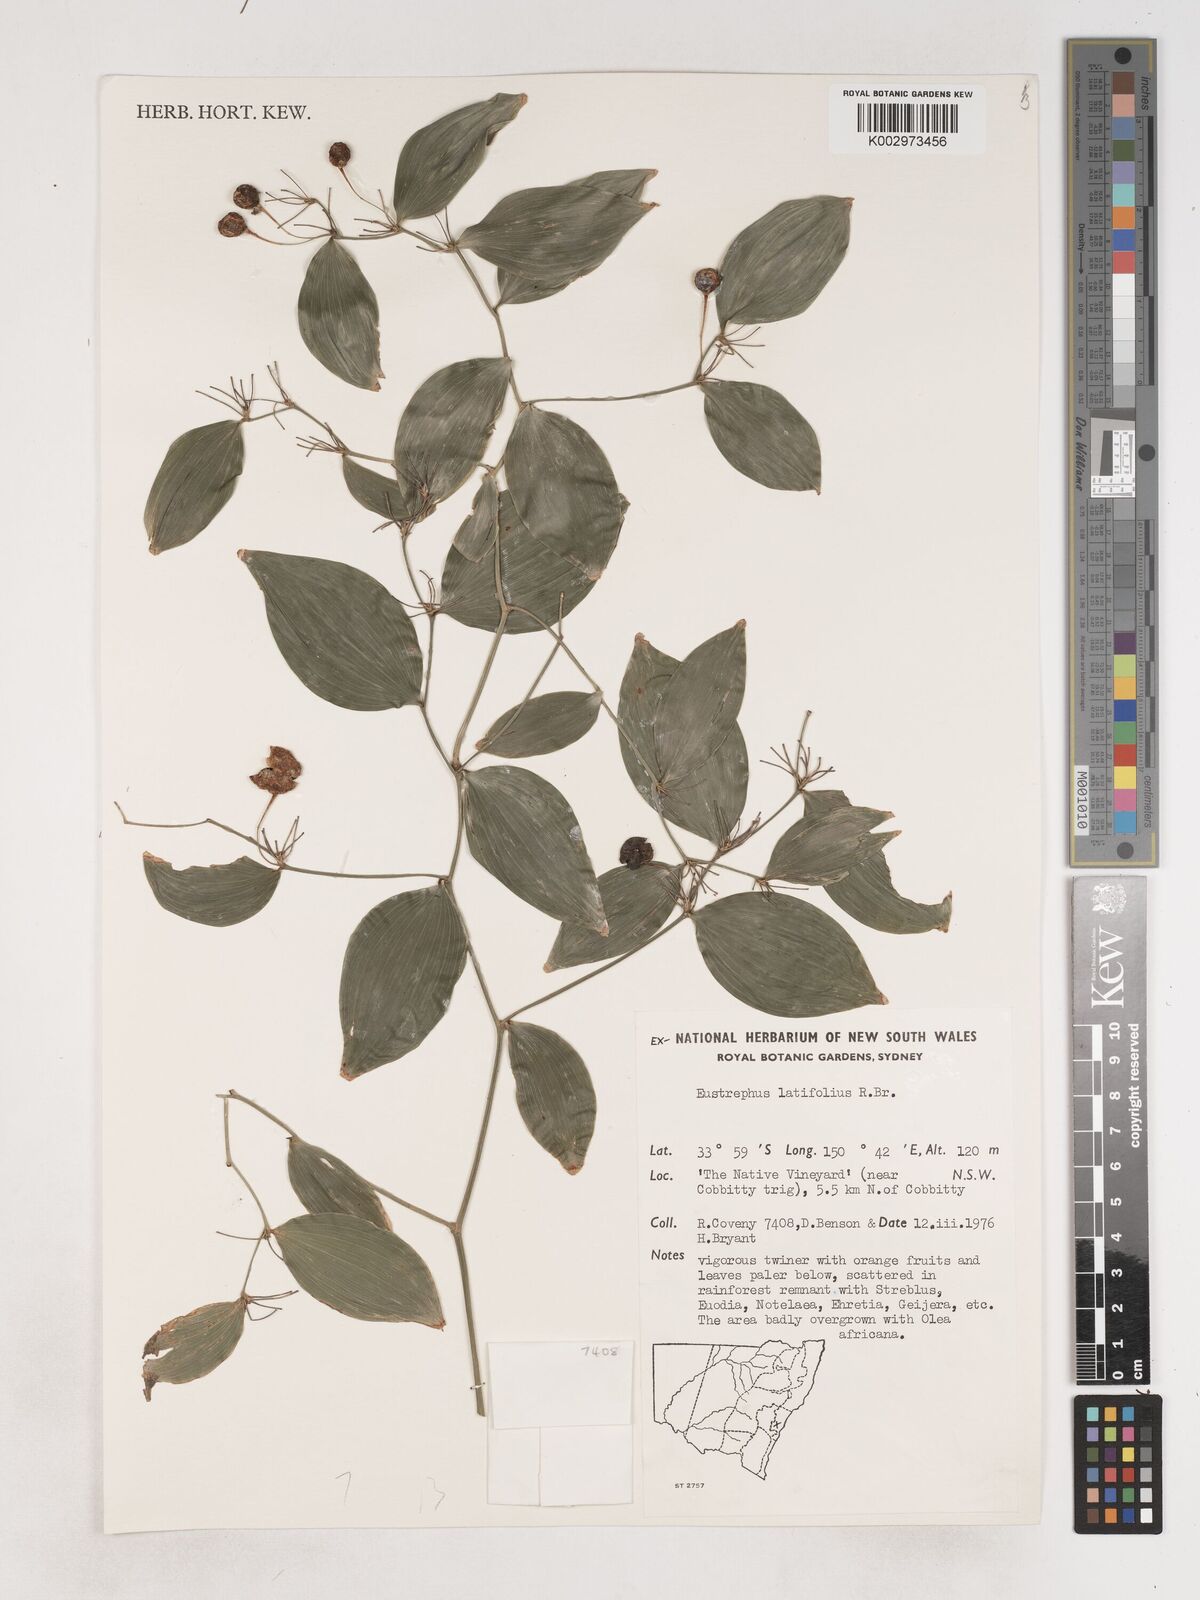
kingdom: Plantae
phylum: Tracheophyta
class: Liliopsida
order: Asparagales
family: Asparagaceae
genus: Eustrephus
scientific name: Eustrephus latifolius
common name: Orangevine
